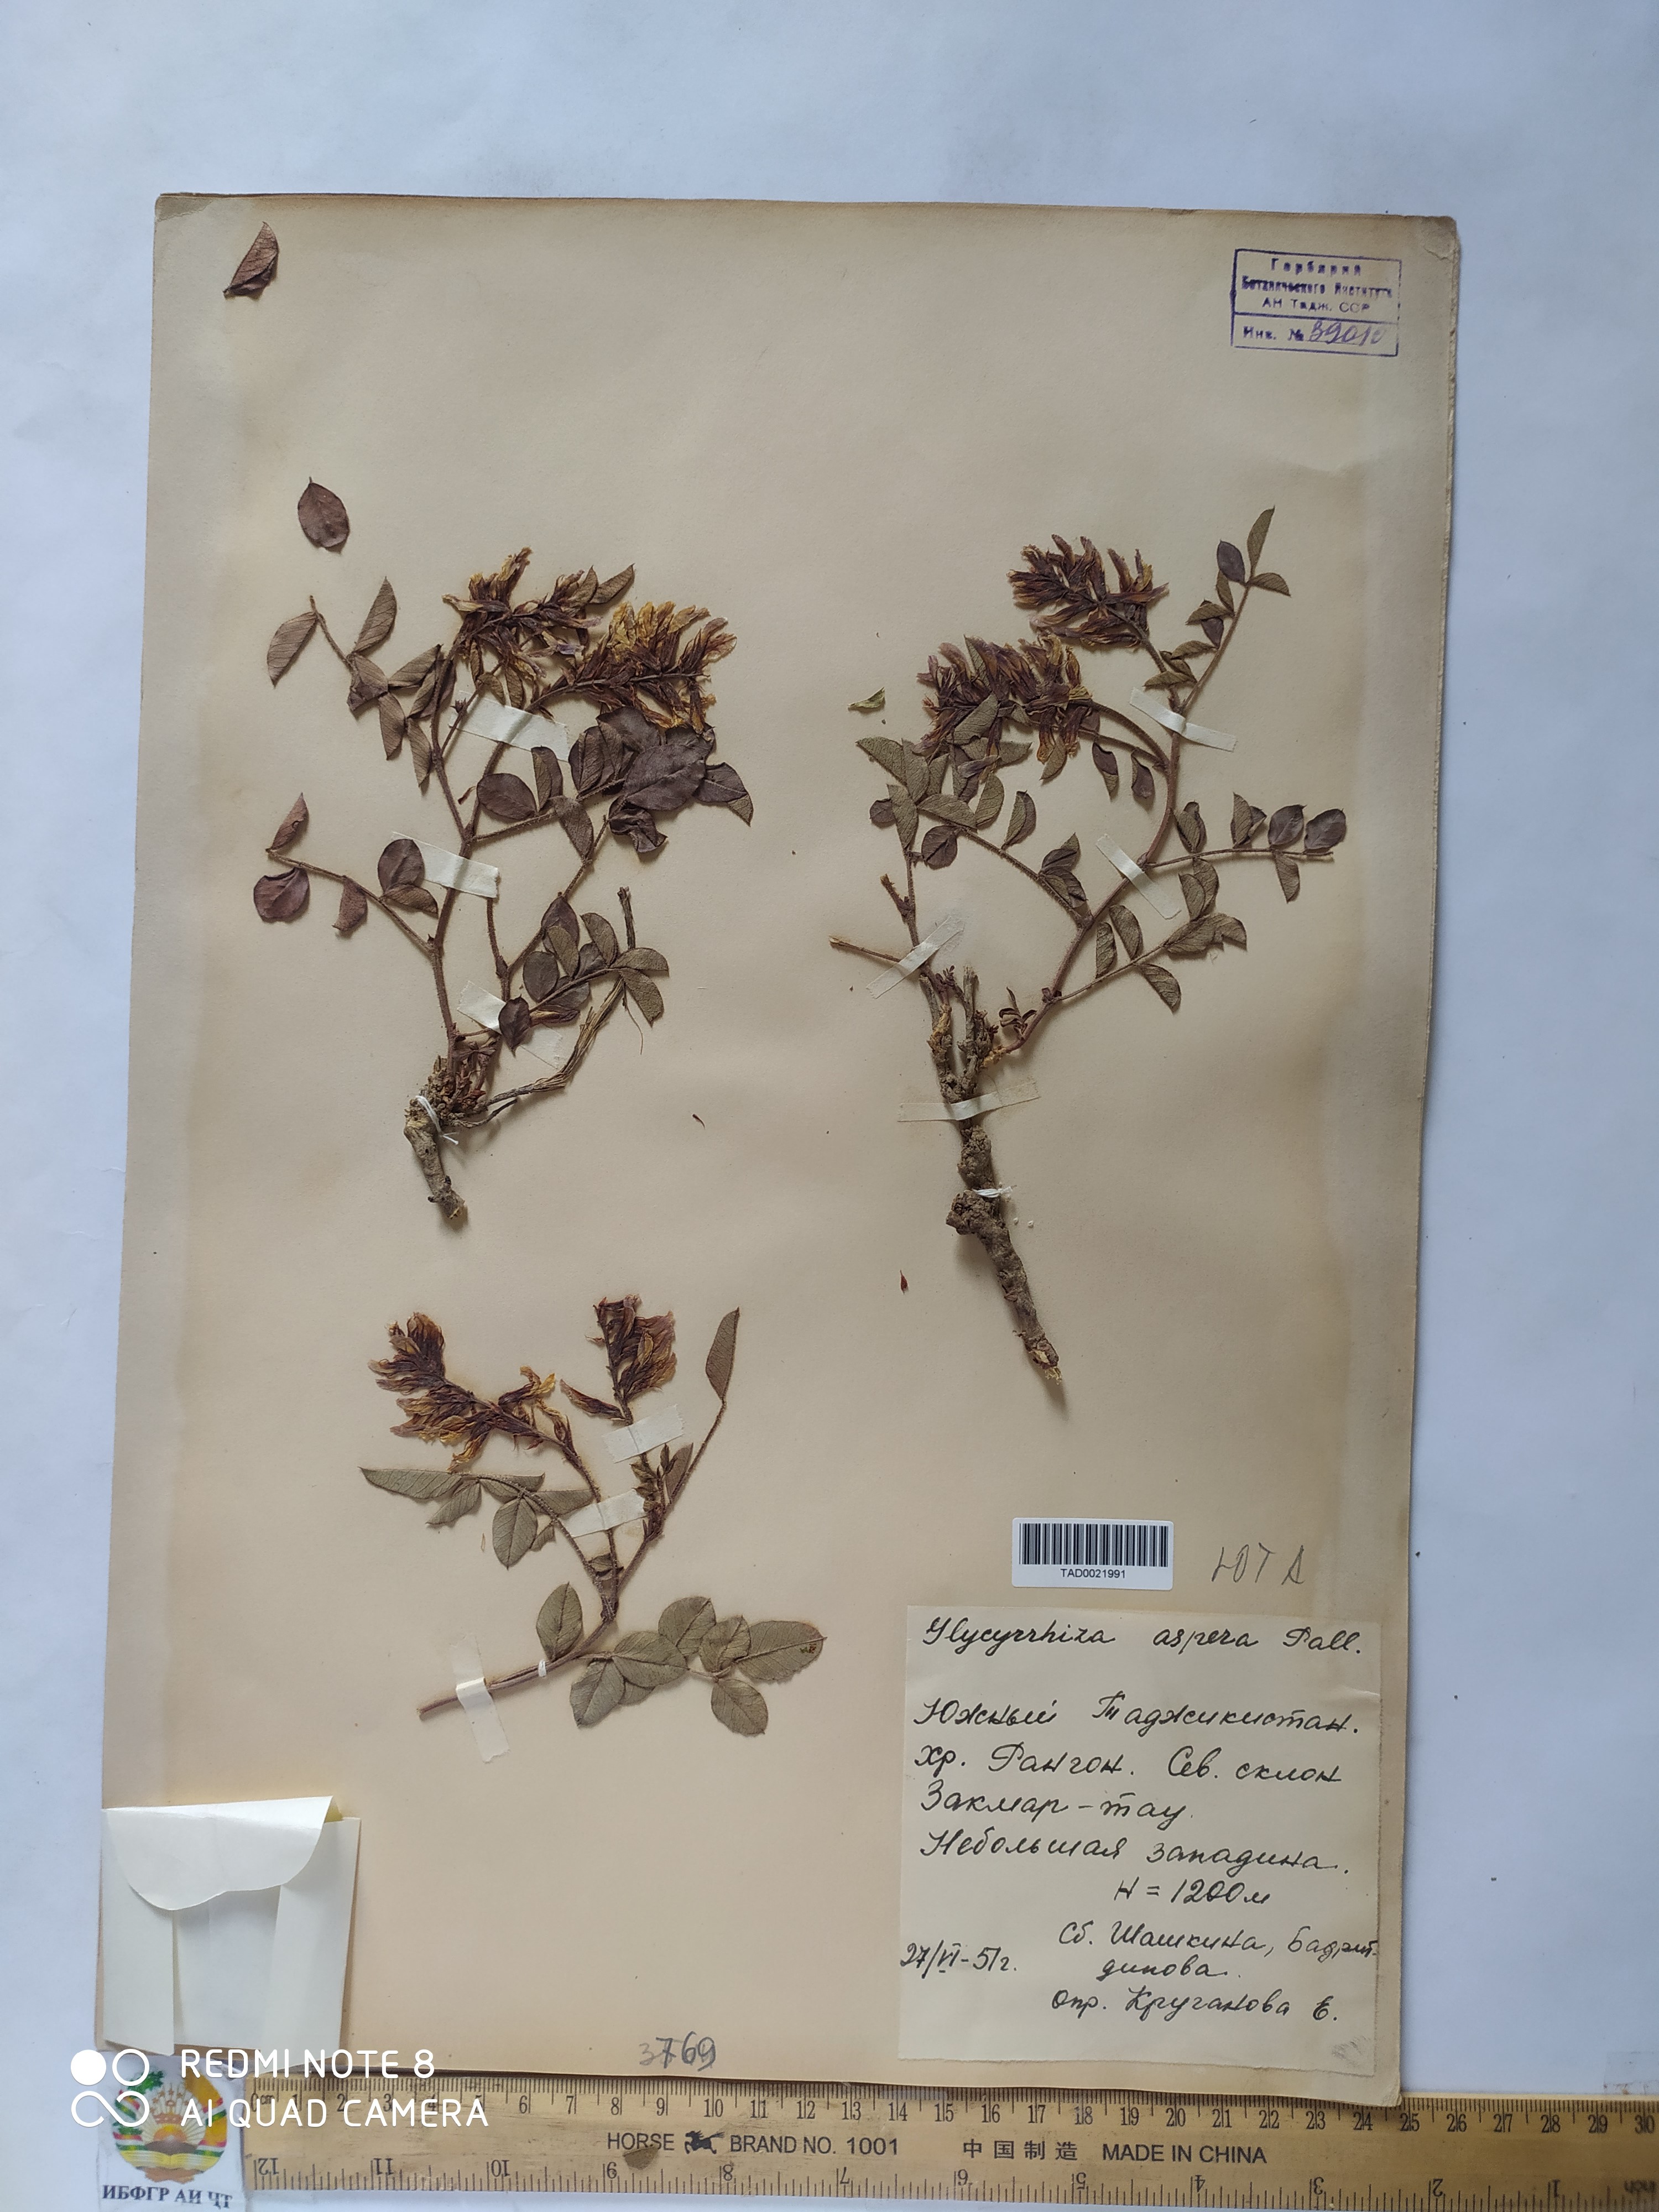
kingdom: Plantae
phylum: Tracheophyta
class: Magnoliopsida
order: Fabales
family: Fabaceae
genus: Glycyrrhiza
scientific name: Glycyrrhiza glabra
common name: Liquorice
